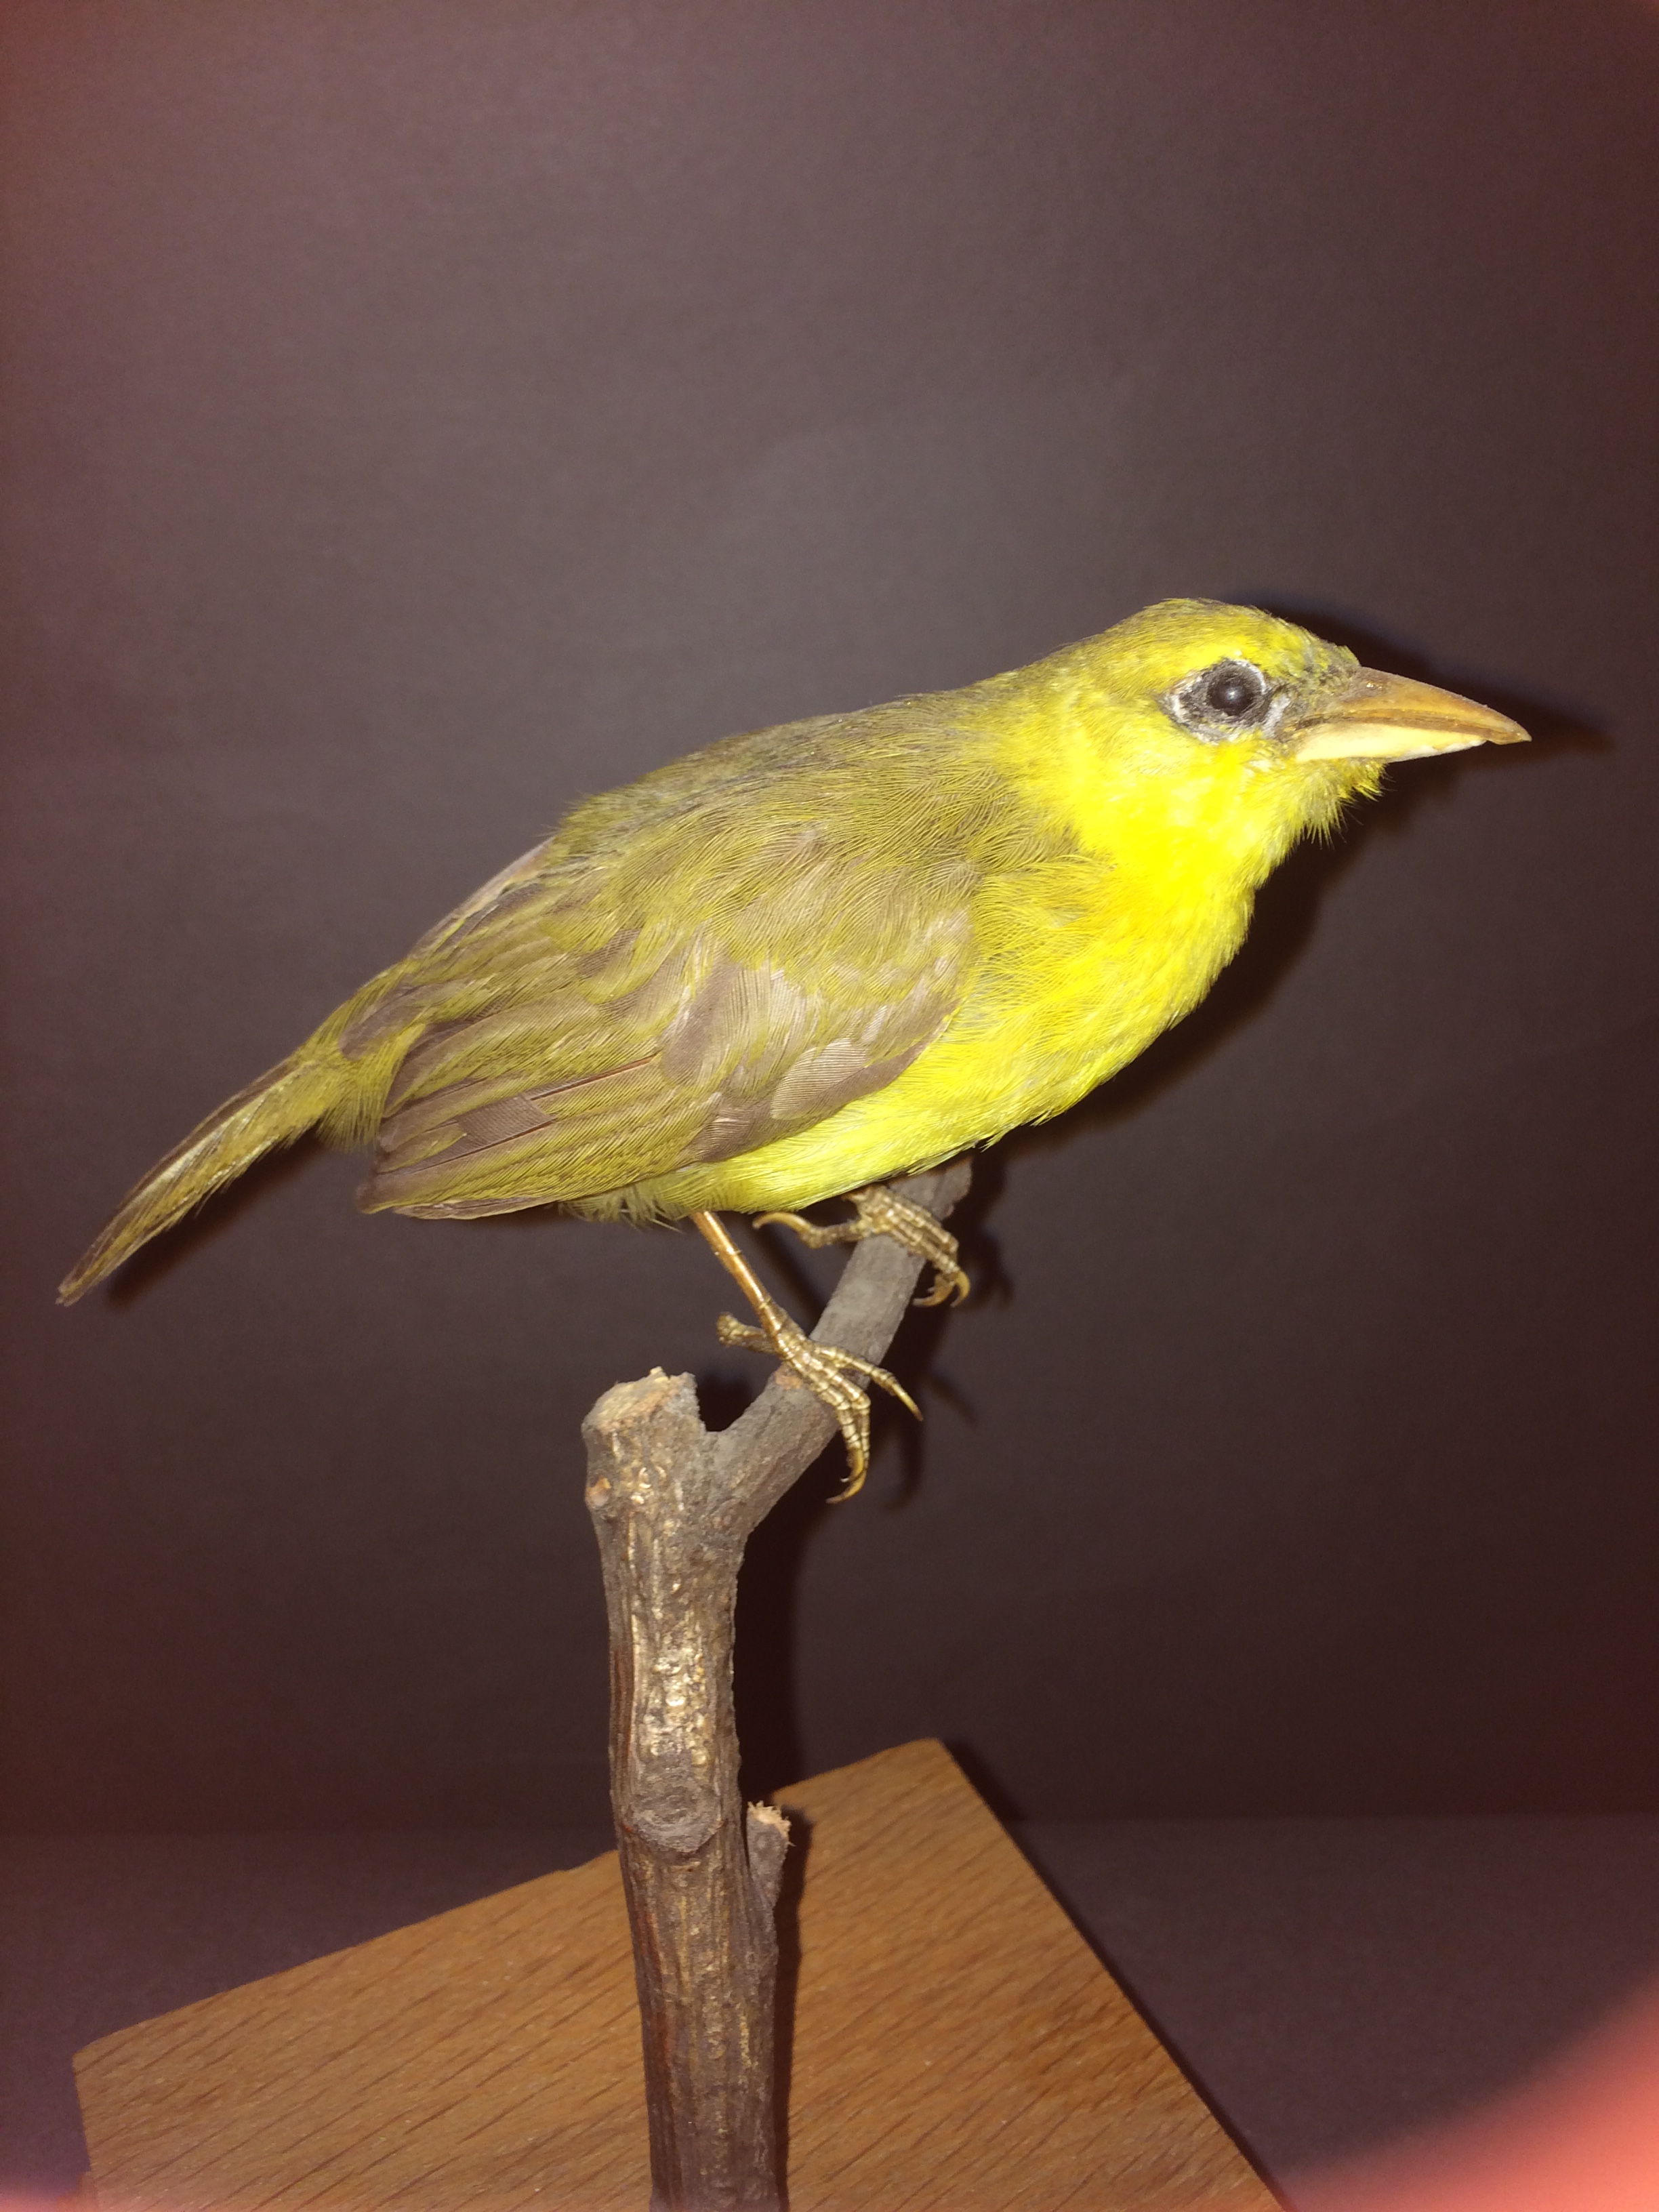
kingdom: Animalia
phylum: Chordata
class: Aves
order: Passeriformes
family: Ploceidae
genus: Ploceus
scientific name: Ploceus ocularis
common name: Spectacled weaver
